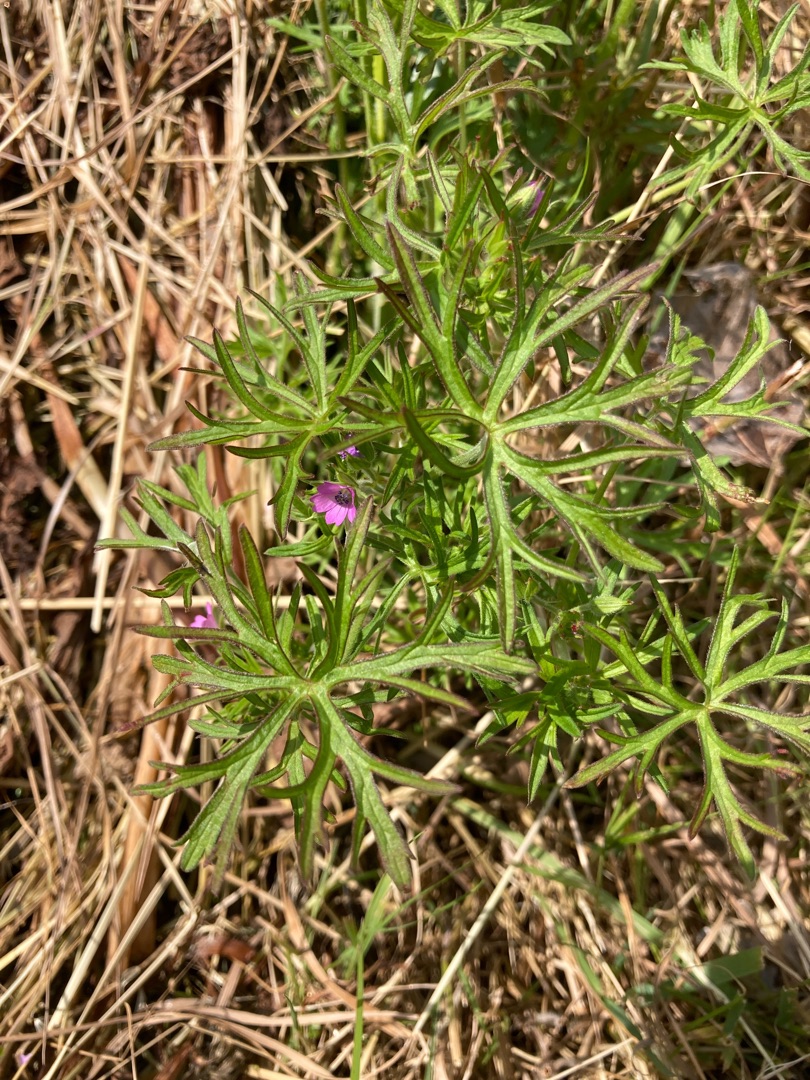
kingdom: Plantae
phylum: Tracheophyta
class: Magnoliopsida
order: Geraniales
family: Geraniaceae
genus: Geranium
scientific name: Geranium dissectum
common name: Kløftet storkenæb
